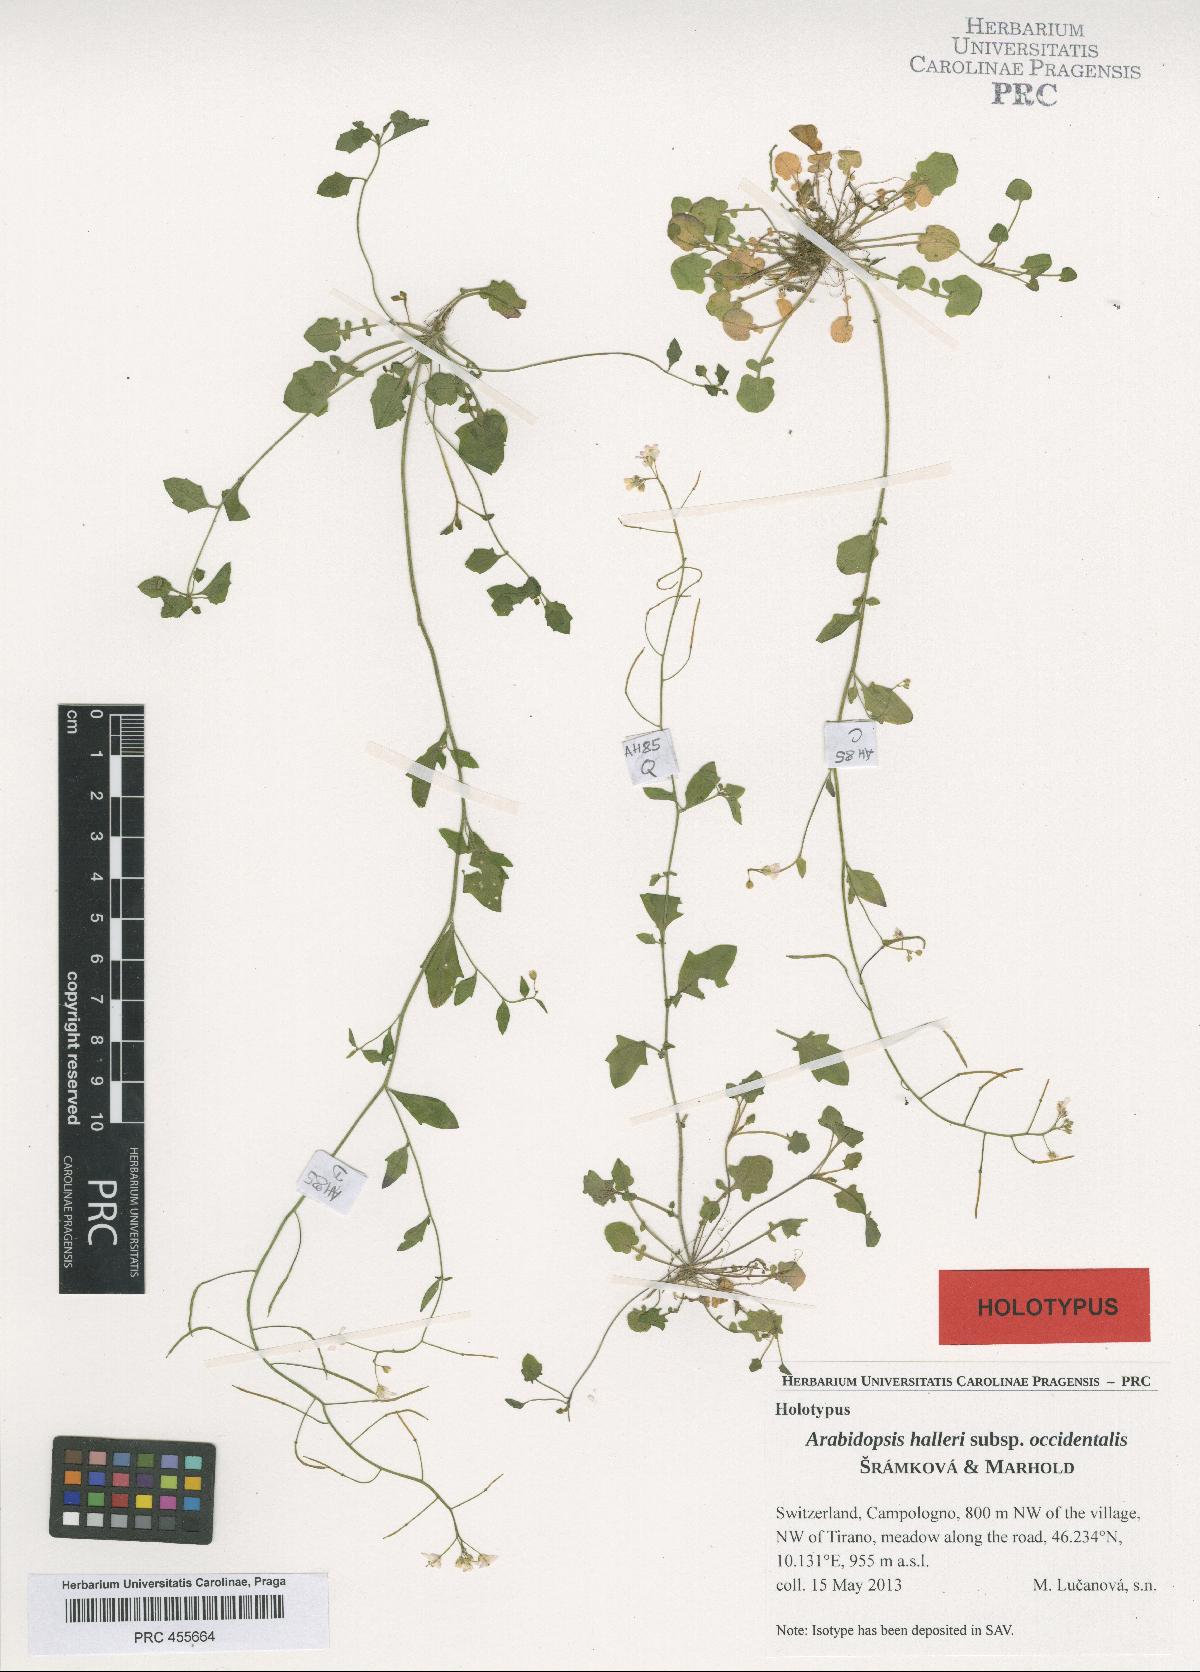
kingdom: Plantae
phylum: Tracheophyta
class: Magnoliopsida
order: Brassicales
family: Brassicaceae
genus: Arabidopsis
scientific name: Arabidopsis halleri
